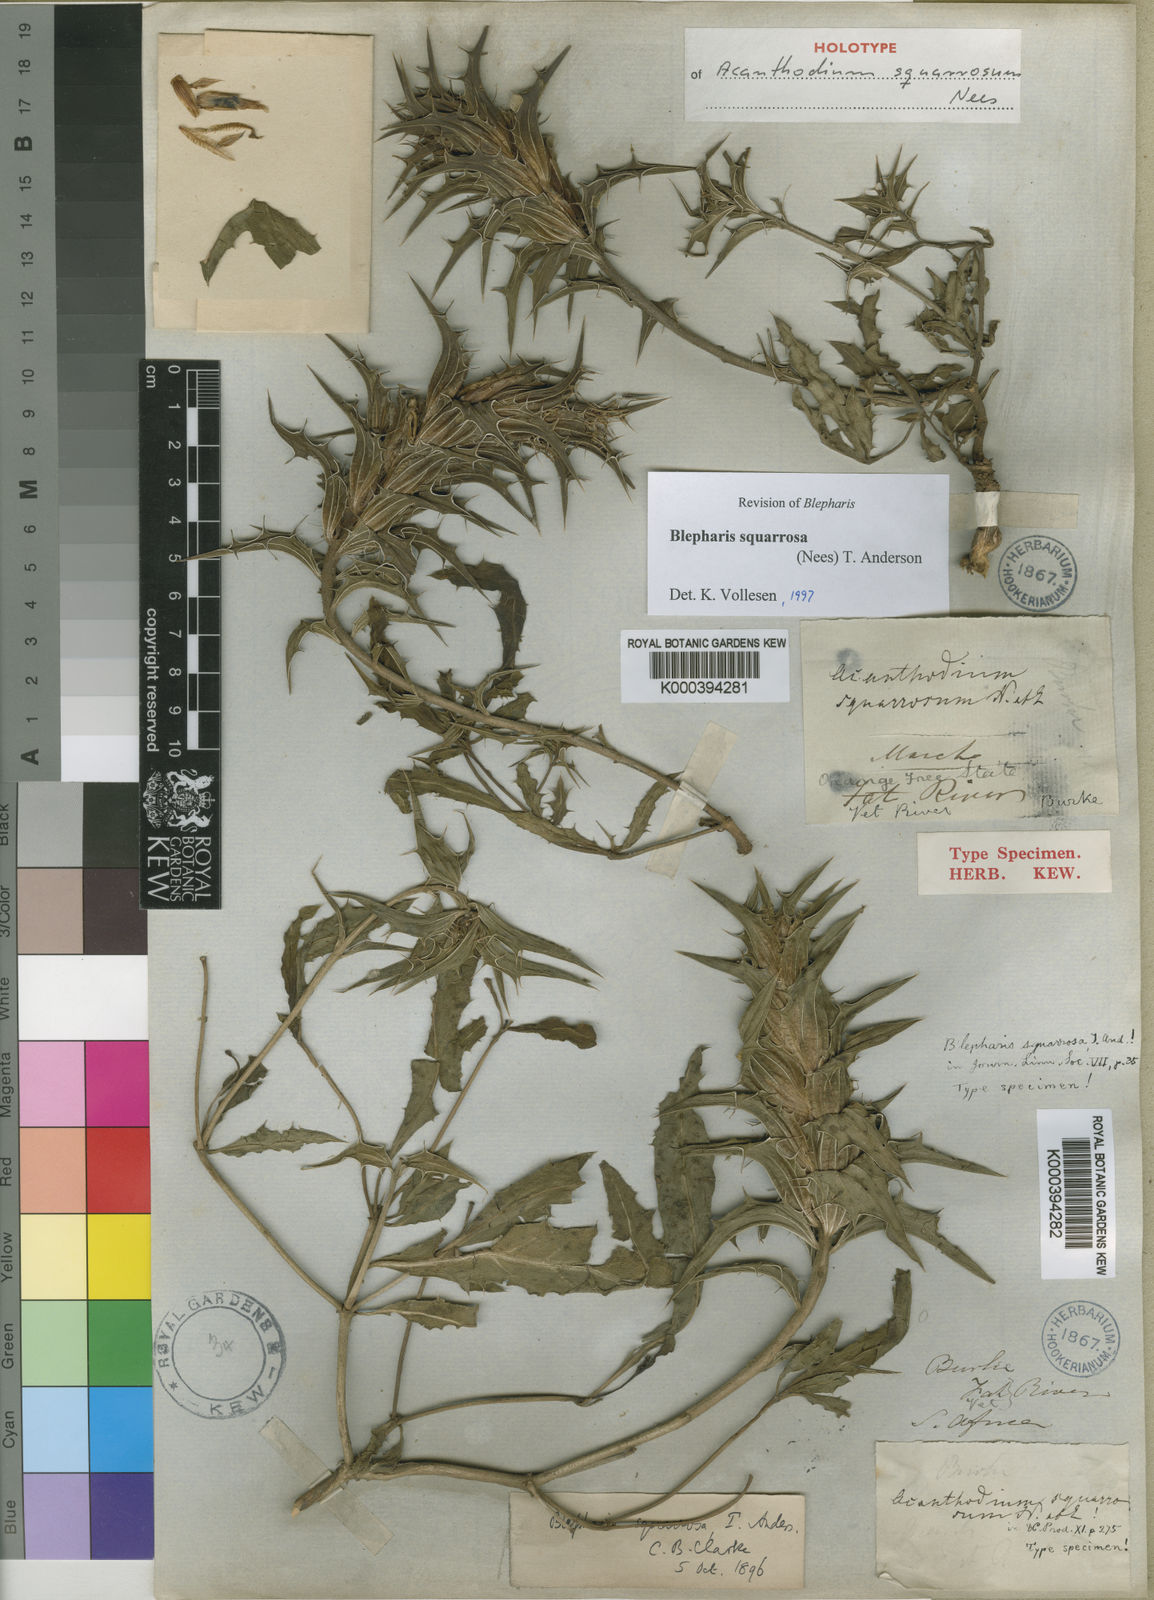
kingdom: Plantae
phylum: Tracheophyta
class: Magnoliopsida
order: Lamiales
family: Acanthaceae
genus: Blepharis
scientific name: Blepharis squarrosa
